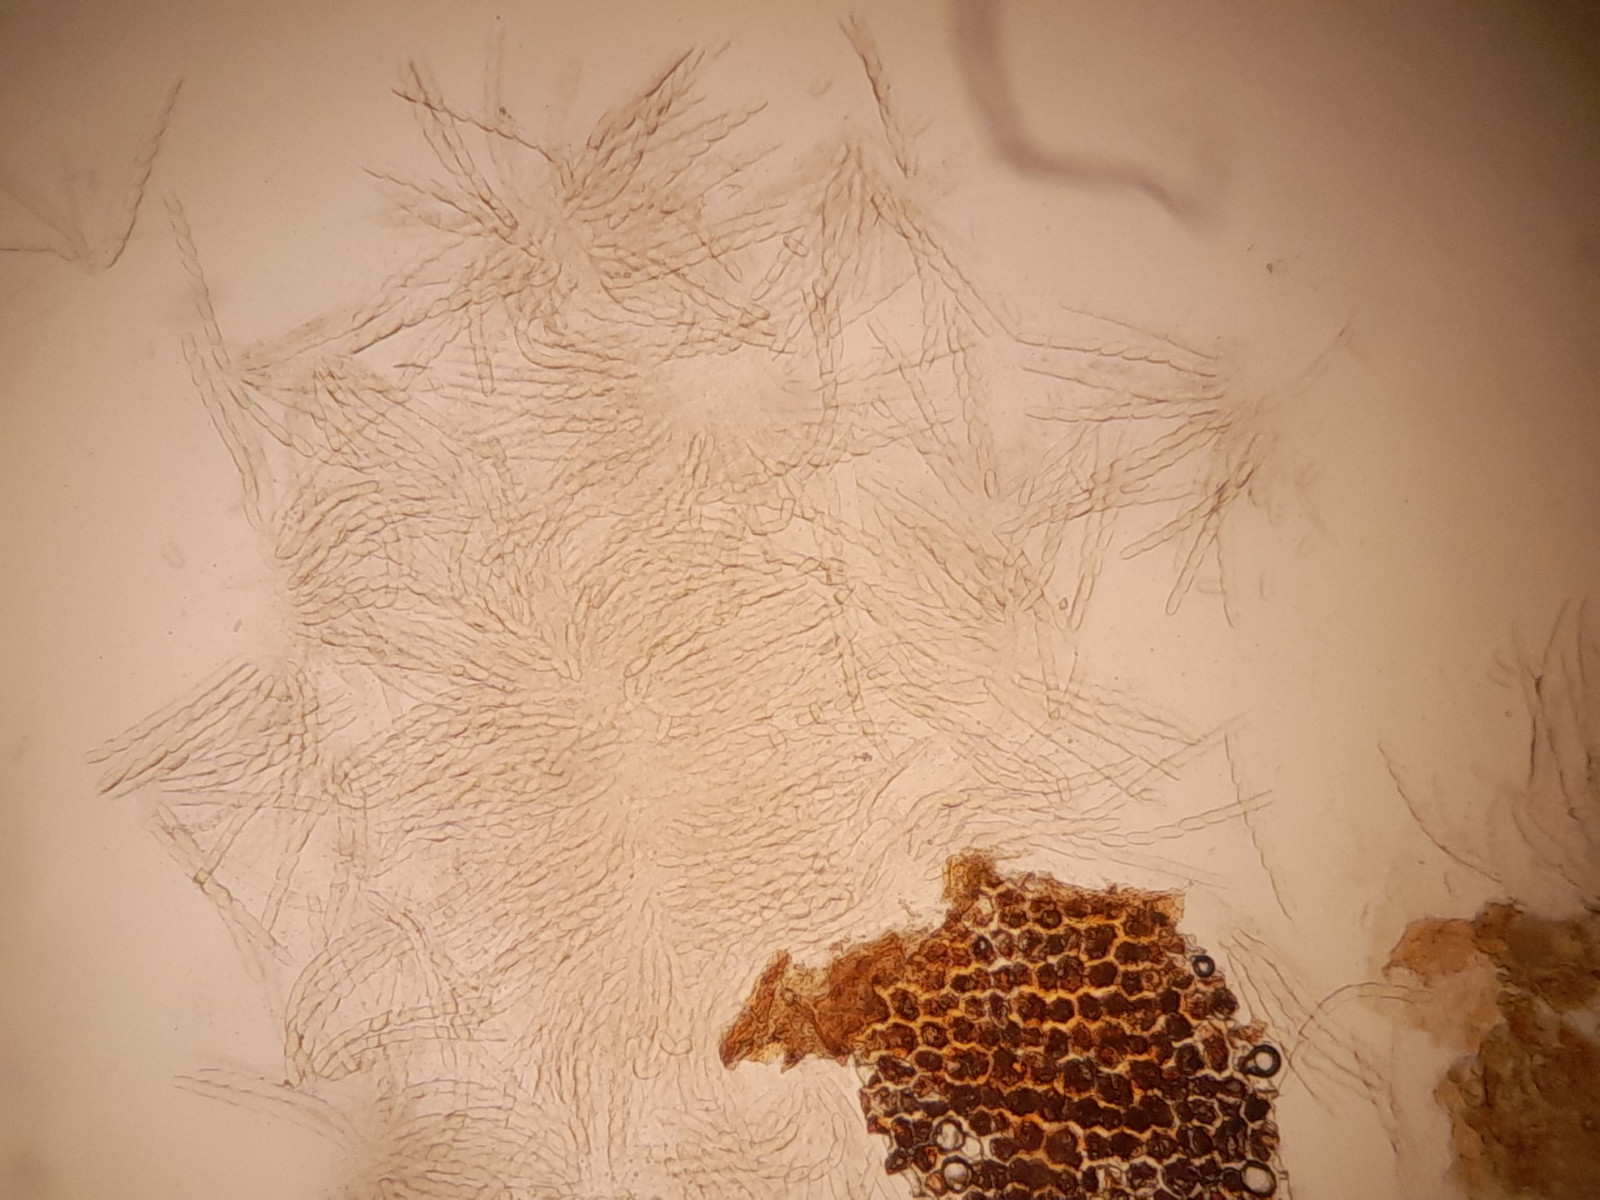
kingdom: Fungi
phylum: Ascomycota
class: Sordariomycetes
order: Amphisphaeriales
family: Sporocadaceae
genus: Discostroma
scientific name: Discostroma
